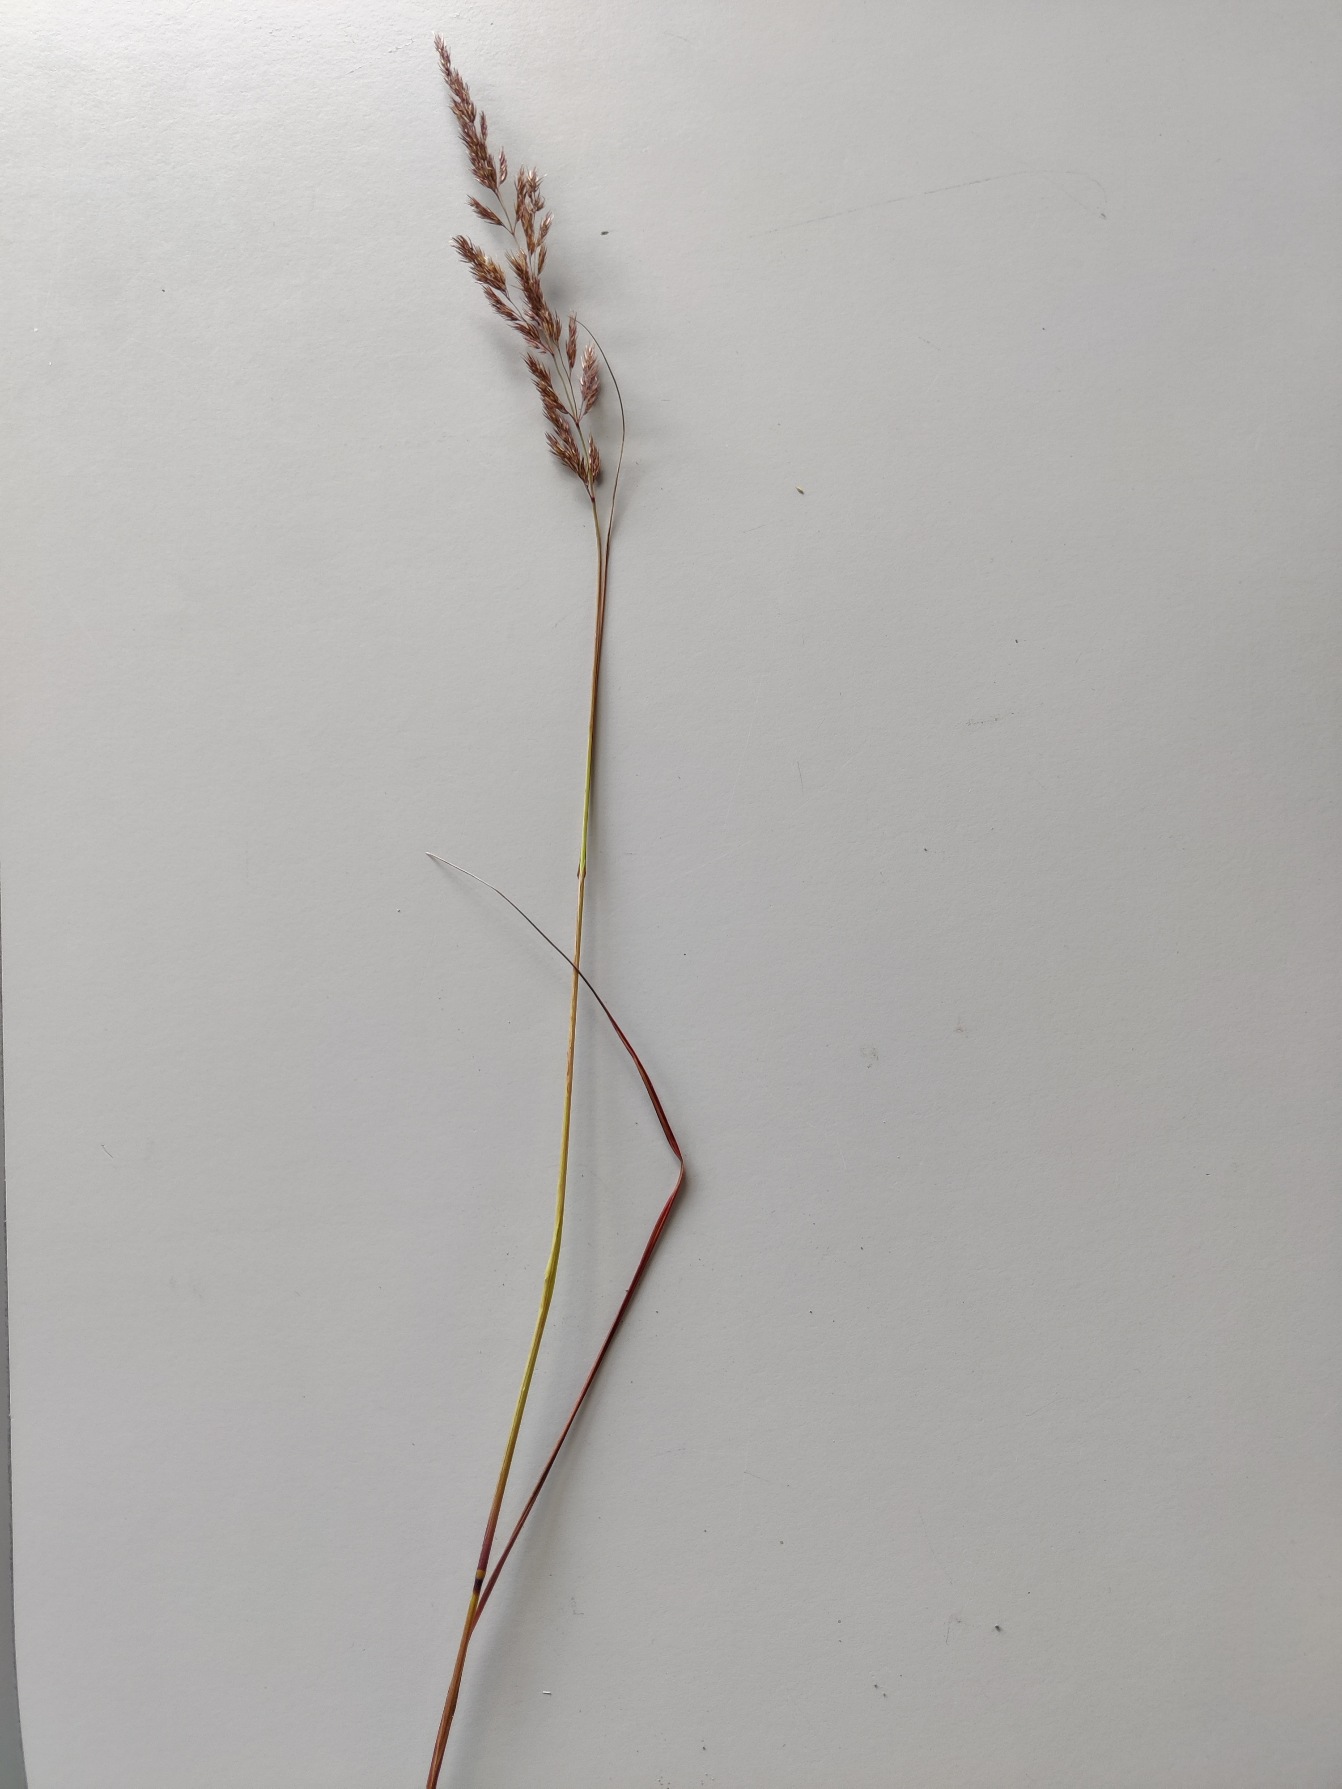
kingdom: Plantae
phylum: Tracheophyta
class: Liliopsida
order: Poales
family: Poaceae
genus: Calamagrostis
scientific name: Calamagrostis epigejos
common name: Bjerg-rørhvene
